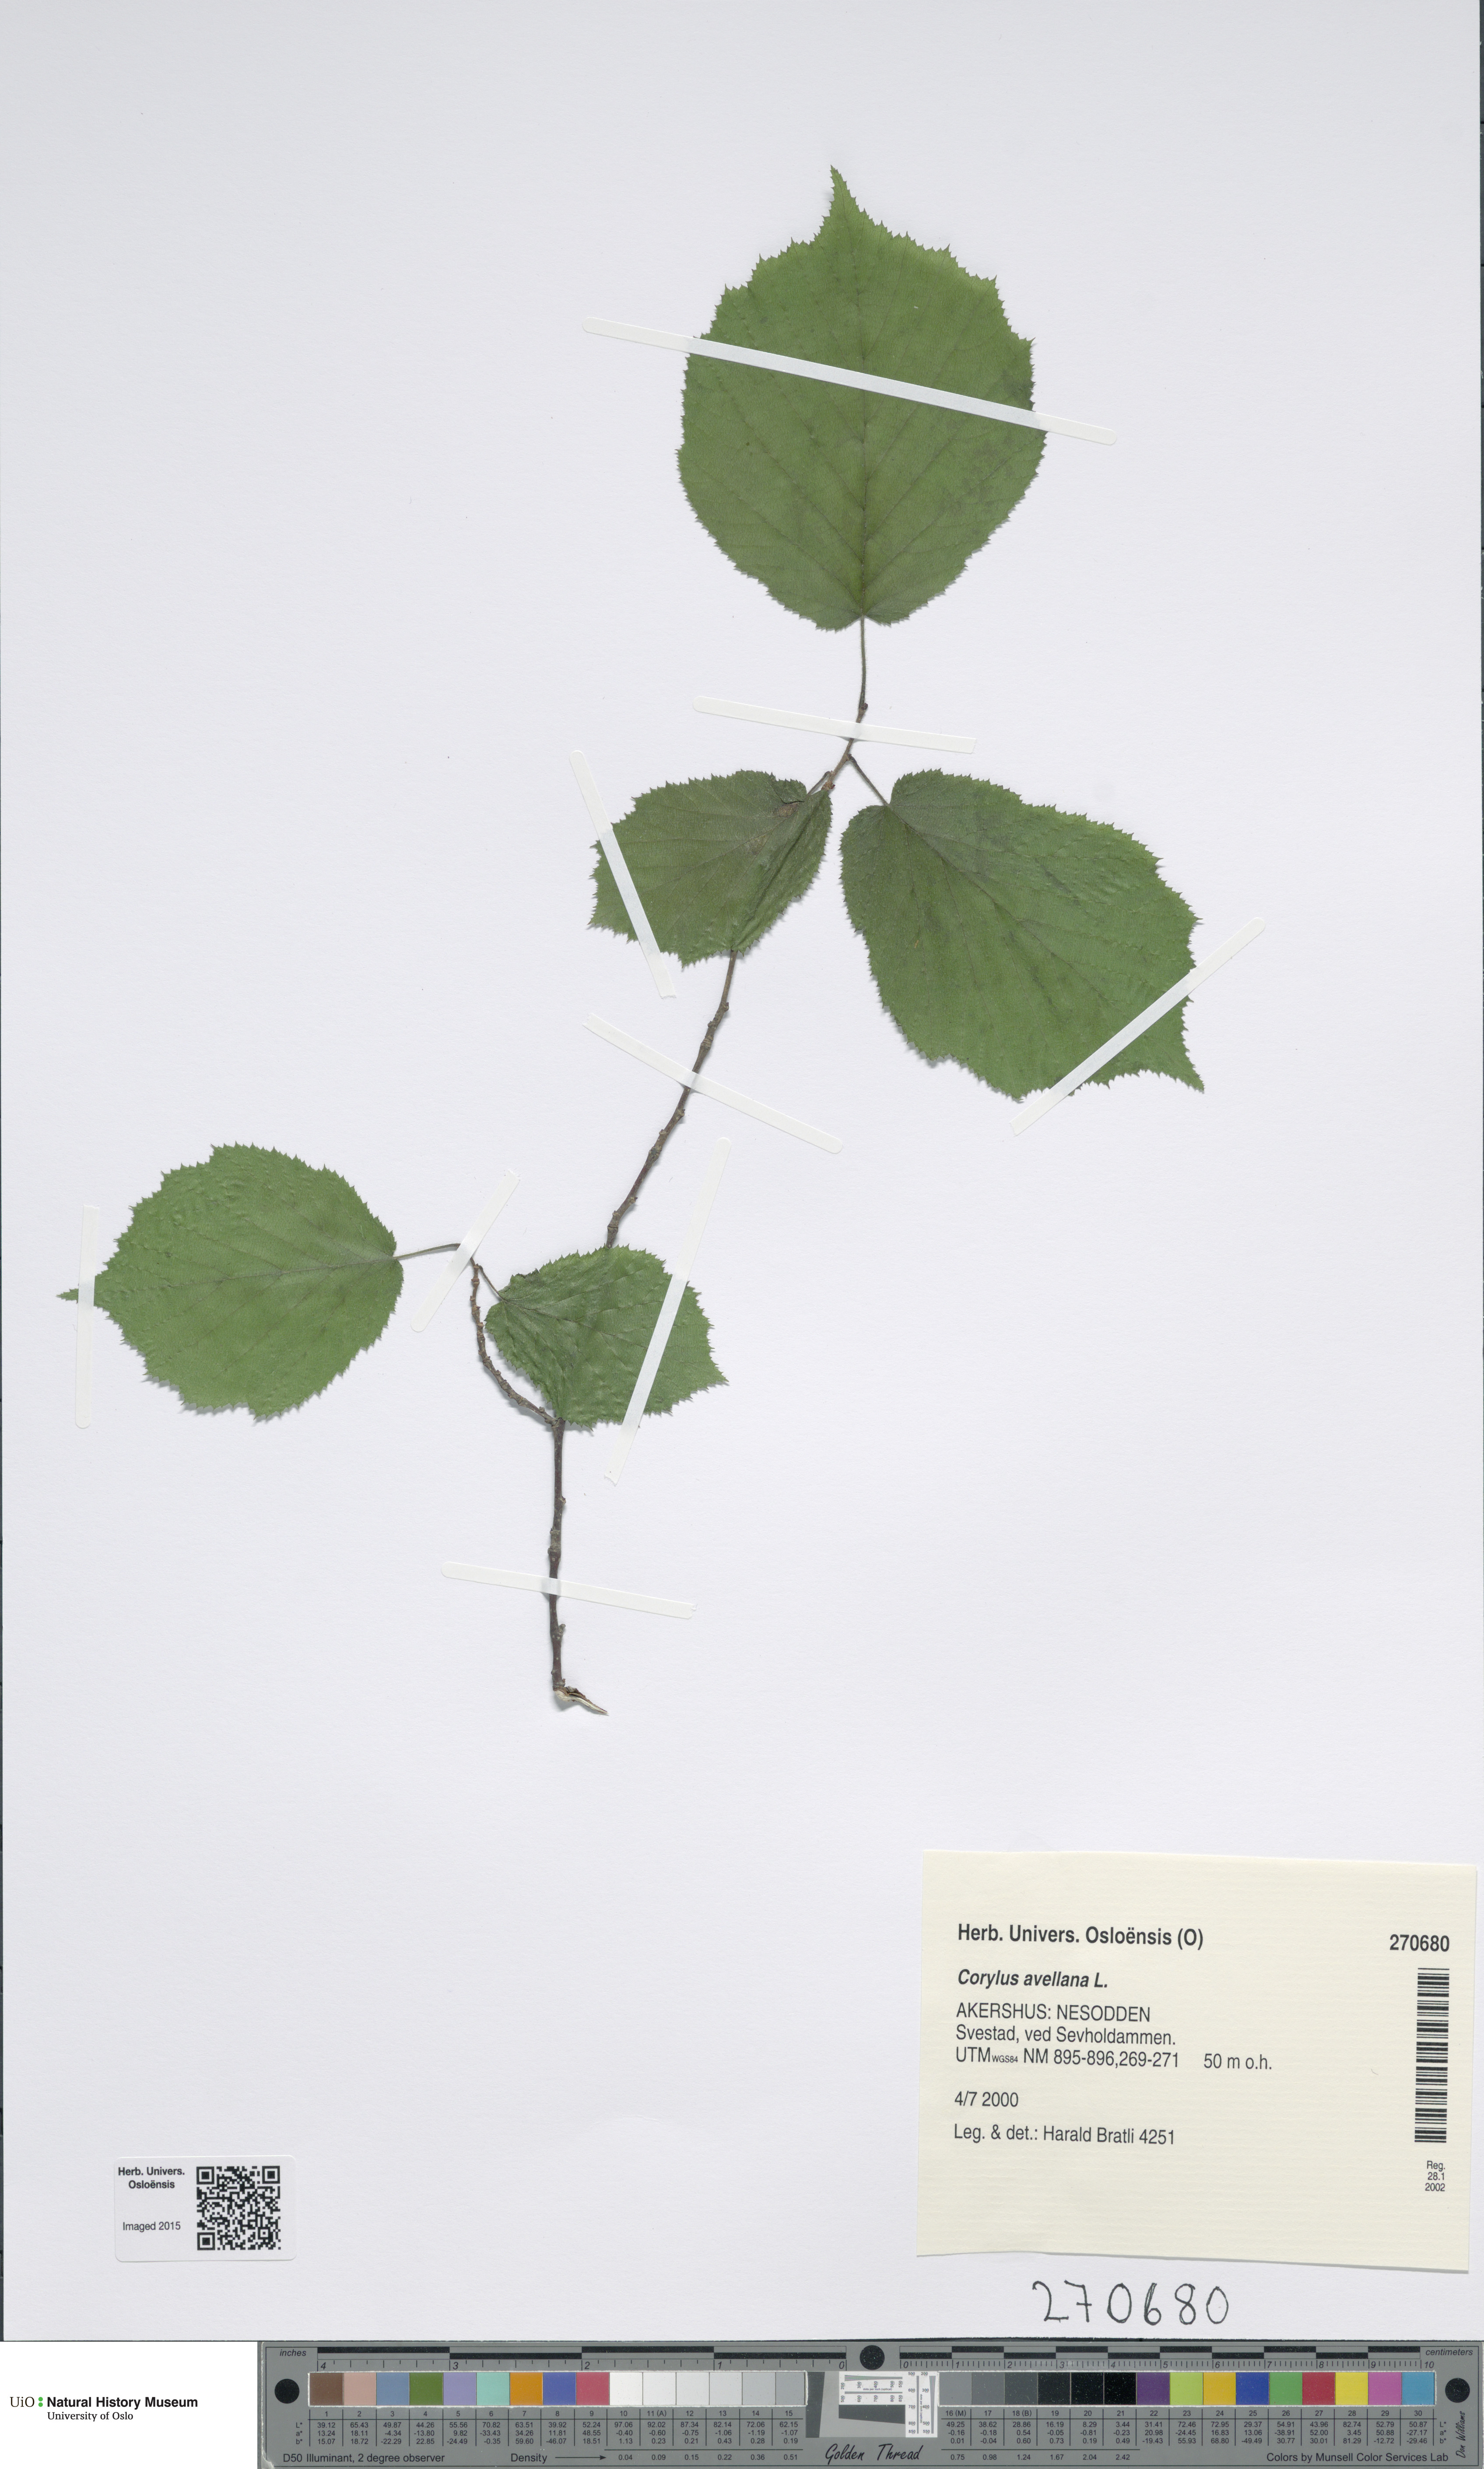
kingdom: Plantae
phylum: Tracheophyta
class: Magnoliopsida
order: Fagales
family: Betulaceae
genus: Corylus
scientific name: Corylus avellana
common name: European hazel
